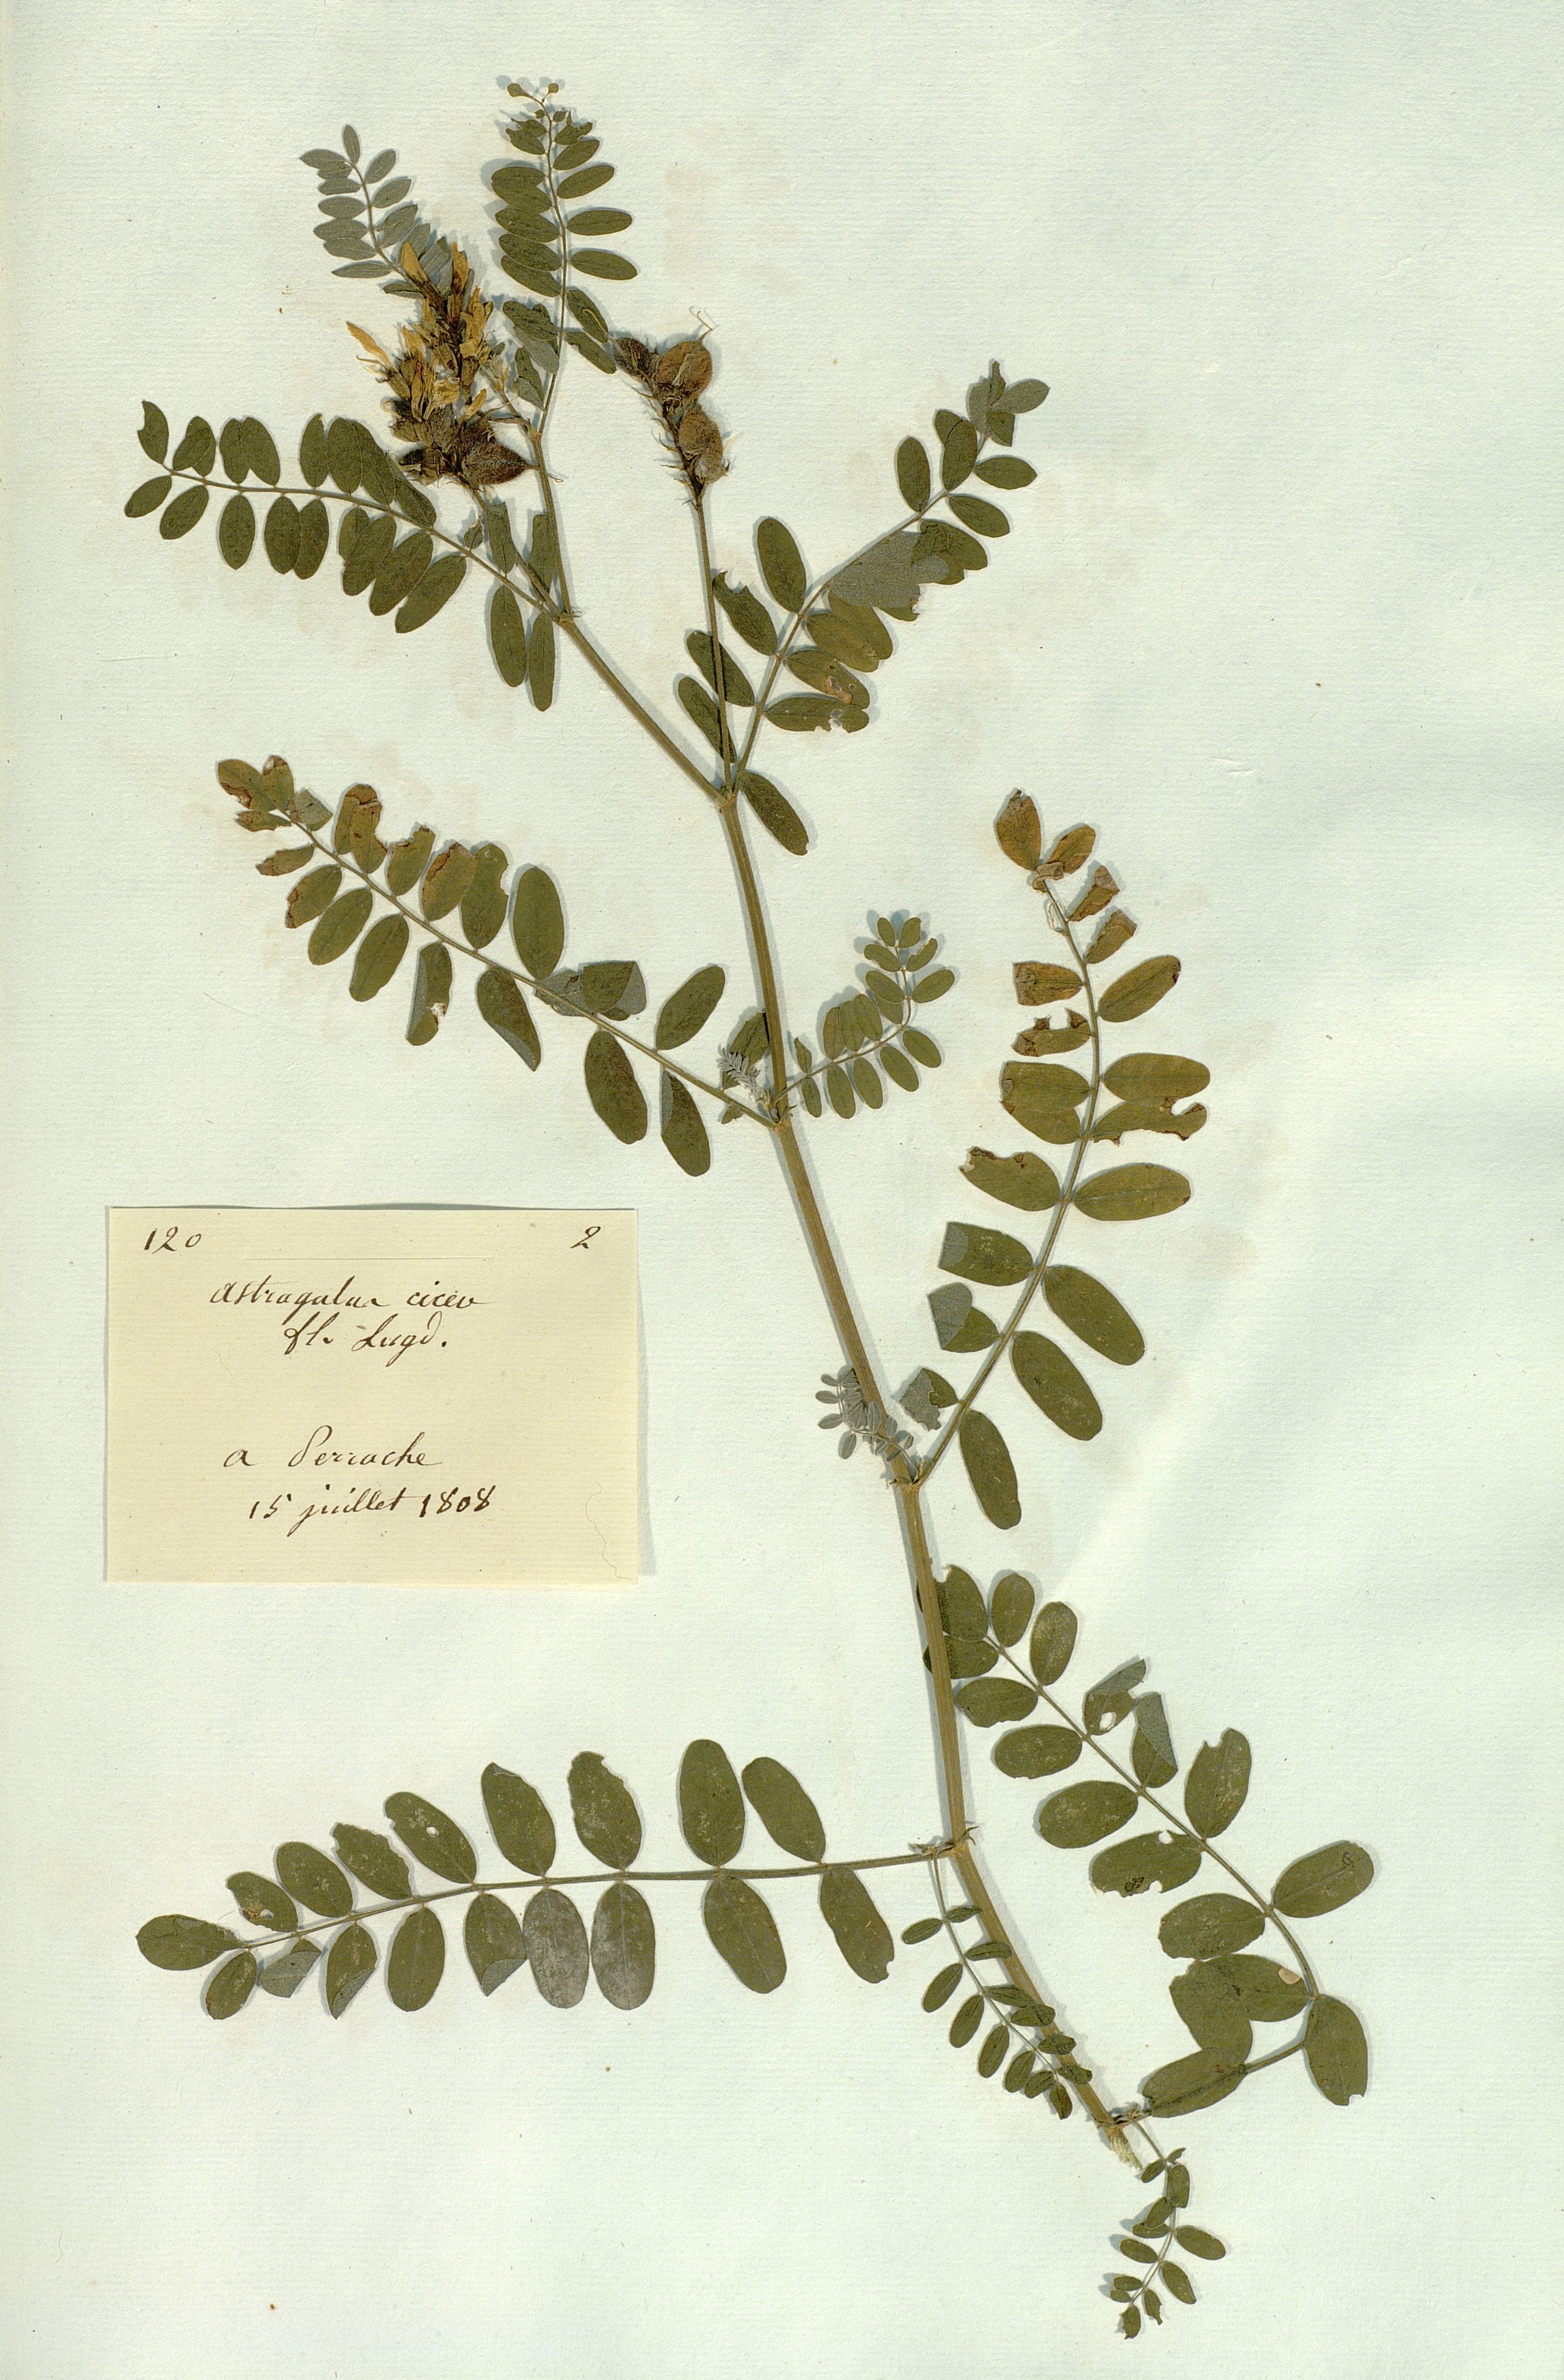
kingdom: Plantae
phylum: Tracheophyta
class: Magnoliopsida
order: Fabales
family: Fabaceae
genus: Astragalus
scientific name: Astragalus cicer
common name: Chick-pea milk-vetch
